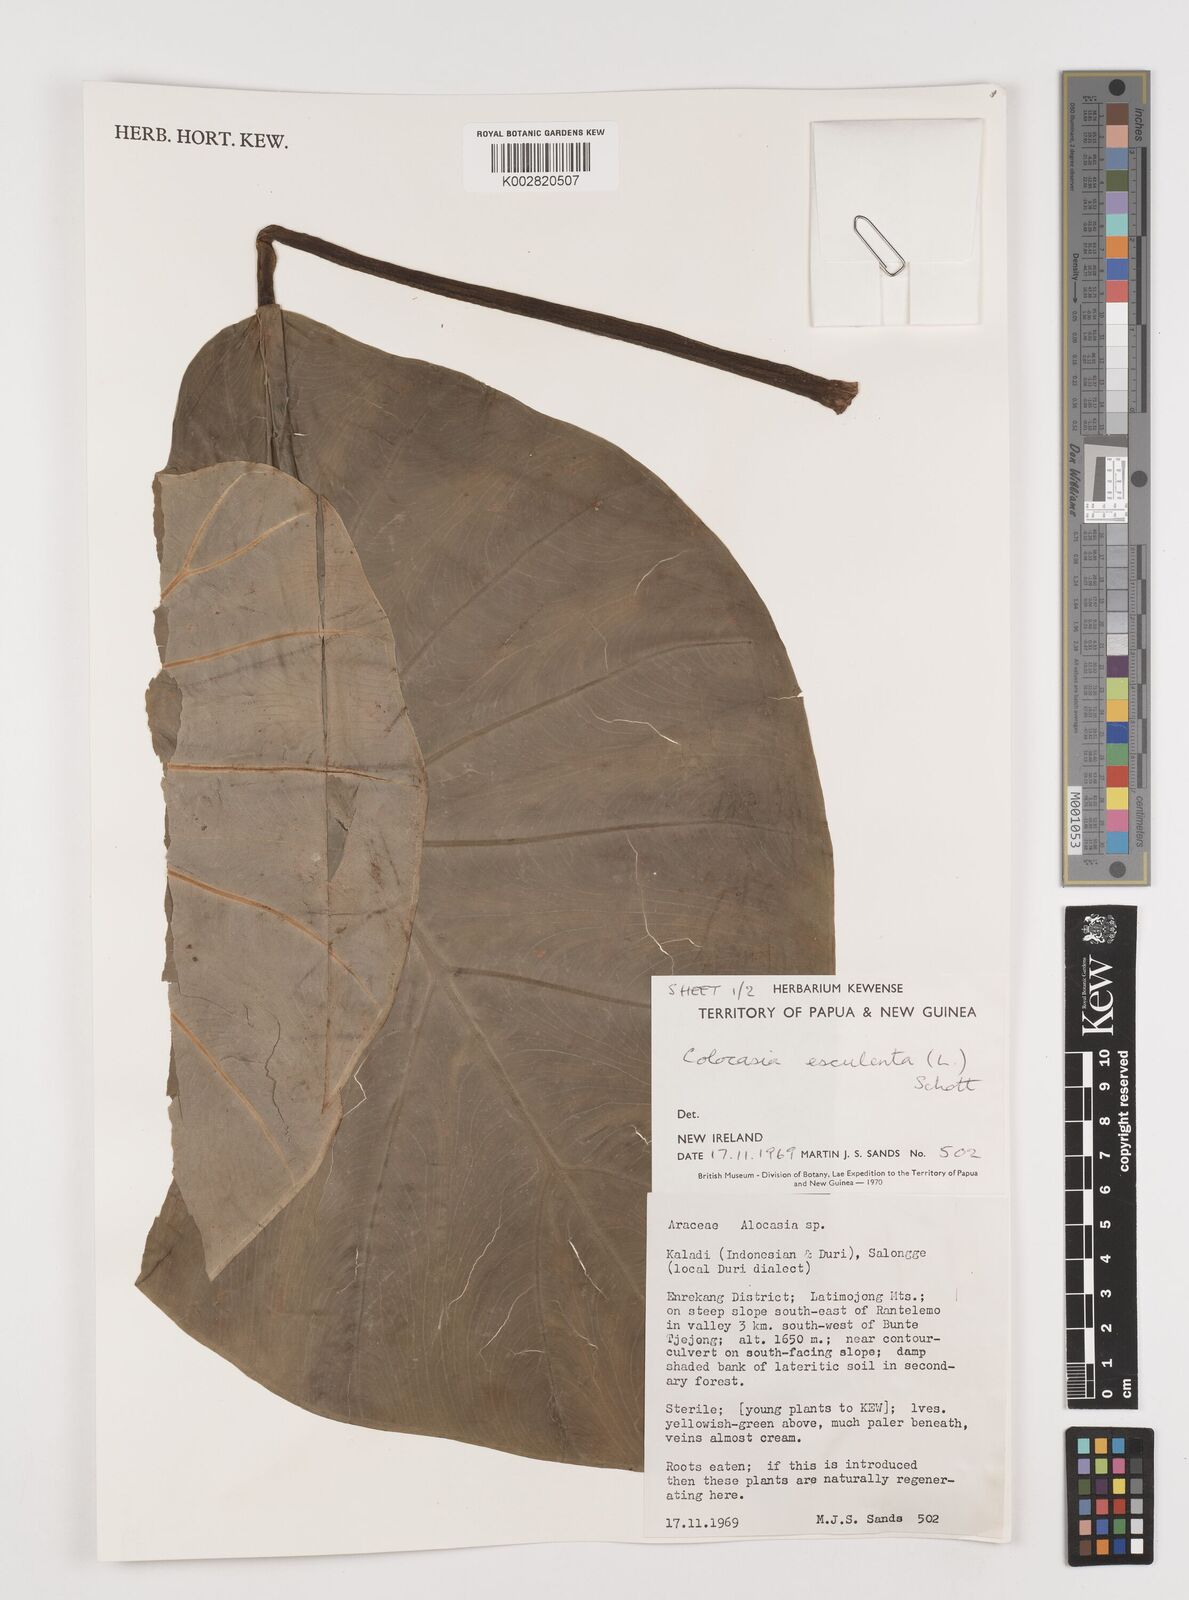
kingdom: Plantae
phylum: Tracheophyta
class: Liliopsida
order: Alismatales
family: Araceae
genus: Colocasia
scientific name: Colocasia esculenta
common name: Taro
